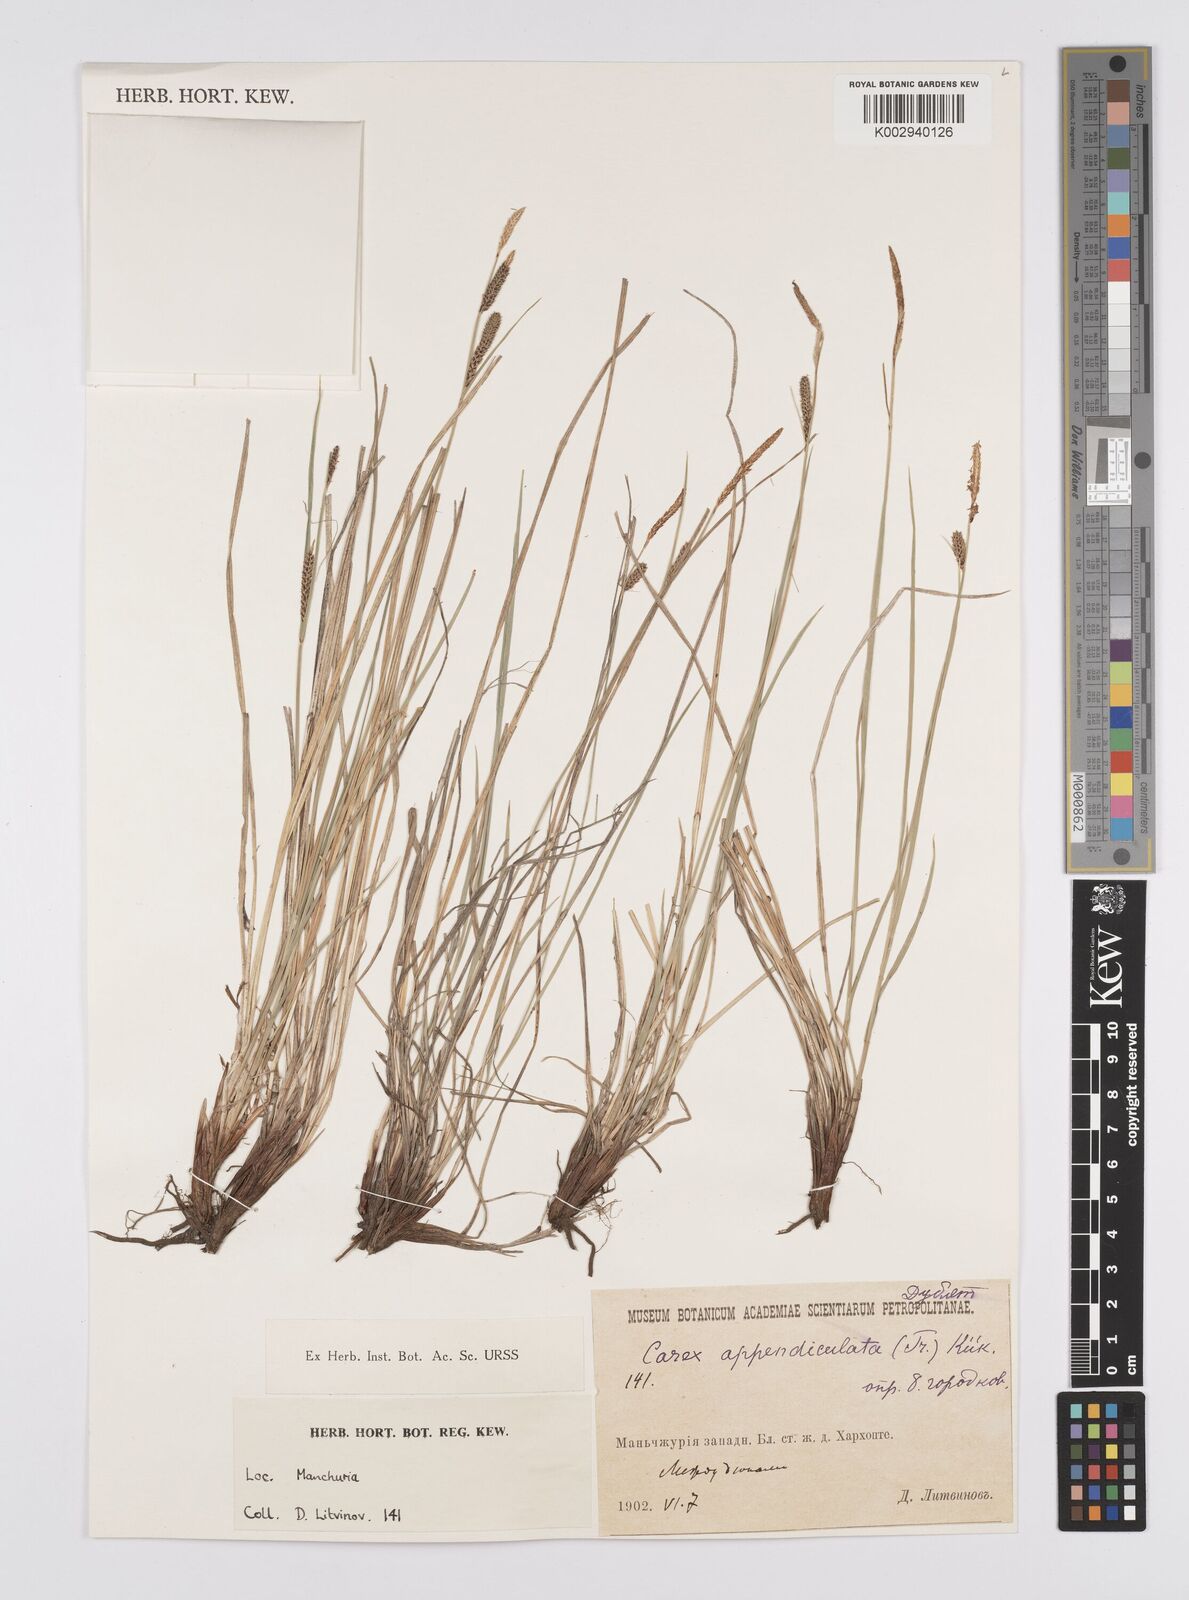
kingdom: Plantae
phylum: Tracheophyta
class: Liliopsida
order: Poales
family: Cyperaceae
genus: Carex
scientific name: Carex appendiculata
